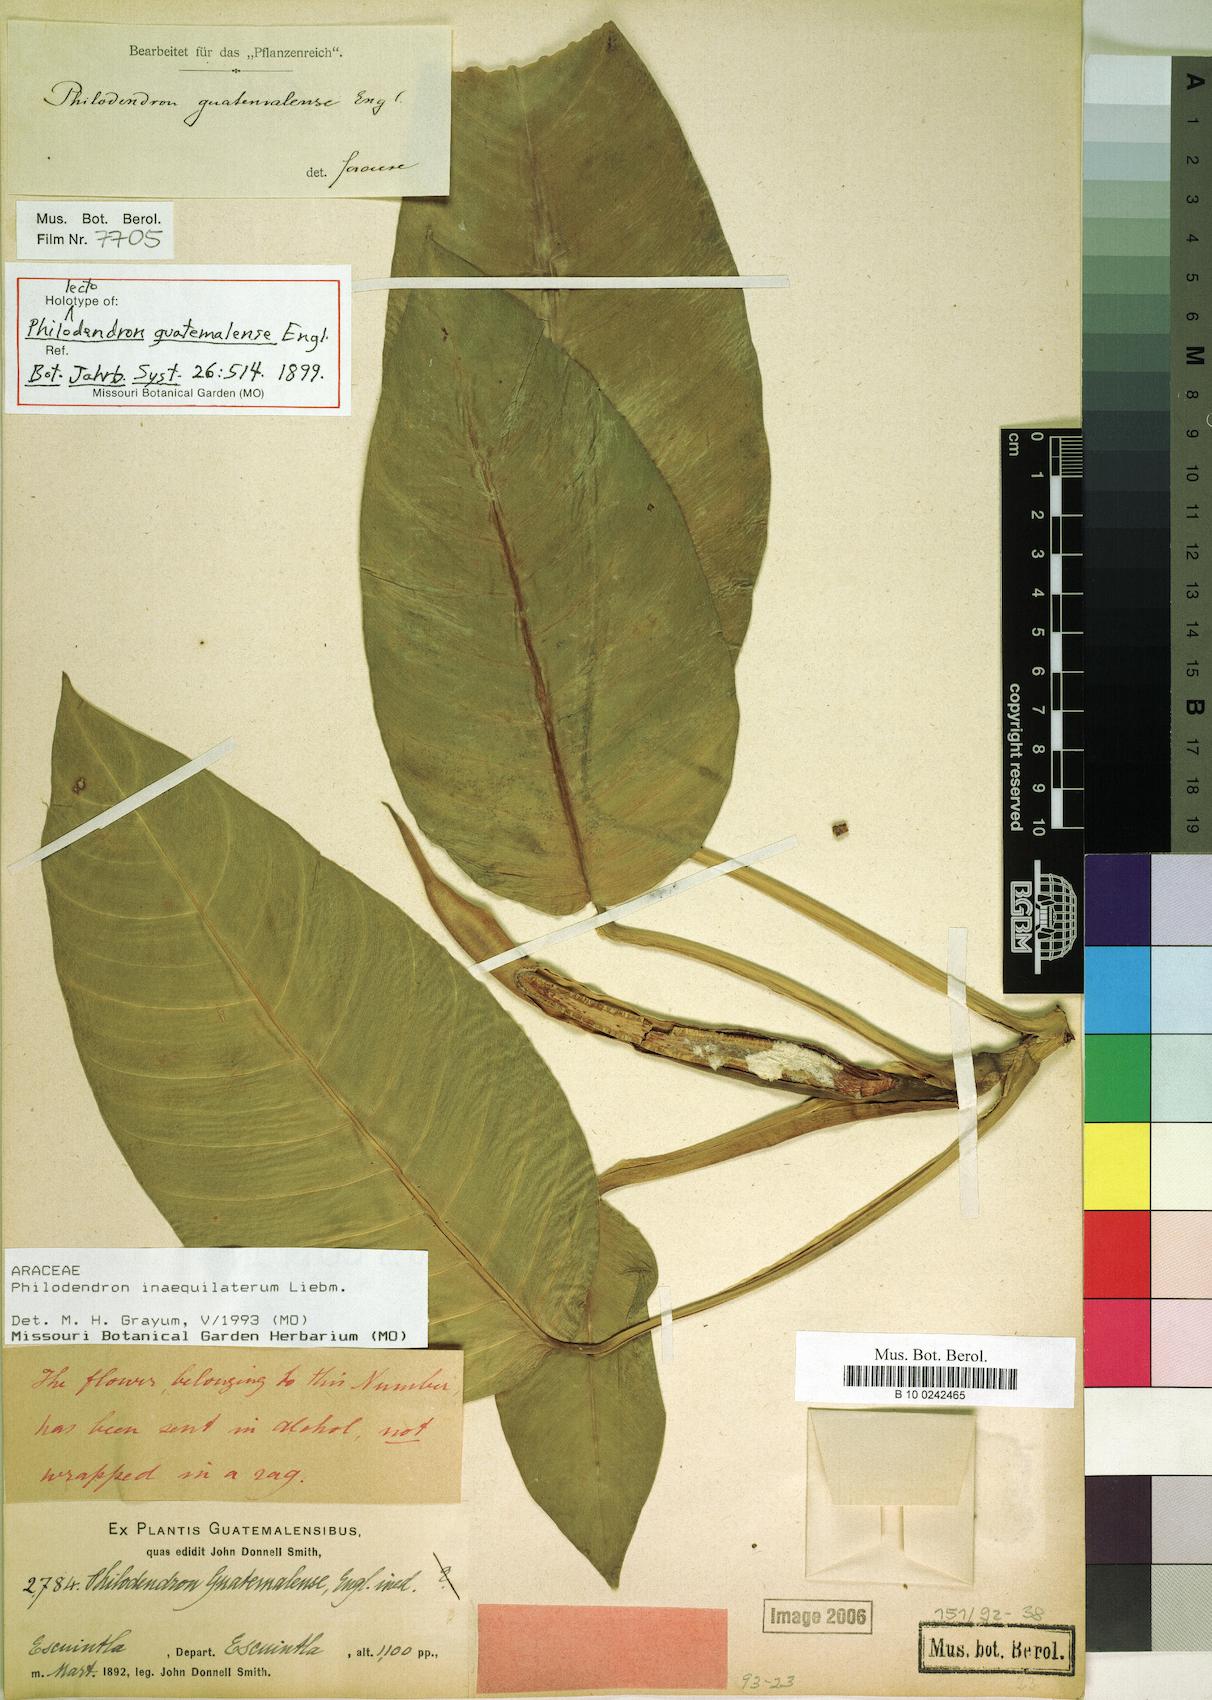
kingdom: Plantae
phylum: Tracheophyta
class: Liliopsida
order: Alismatales
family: Araceae
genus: Philodendron
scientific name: Philodendron inaequilaterum
